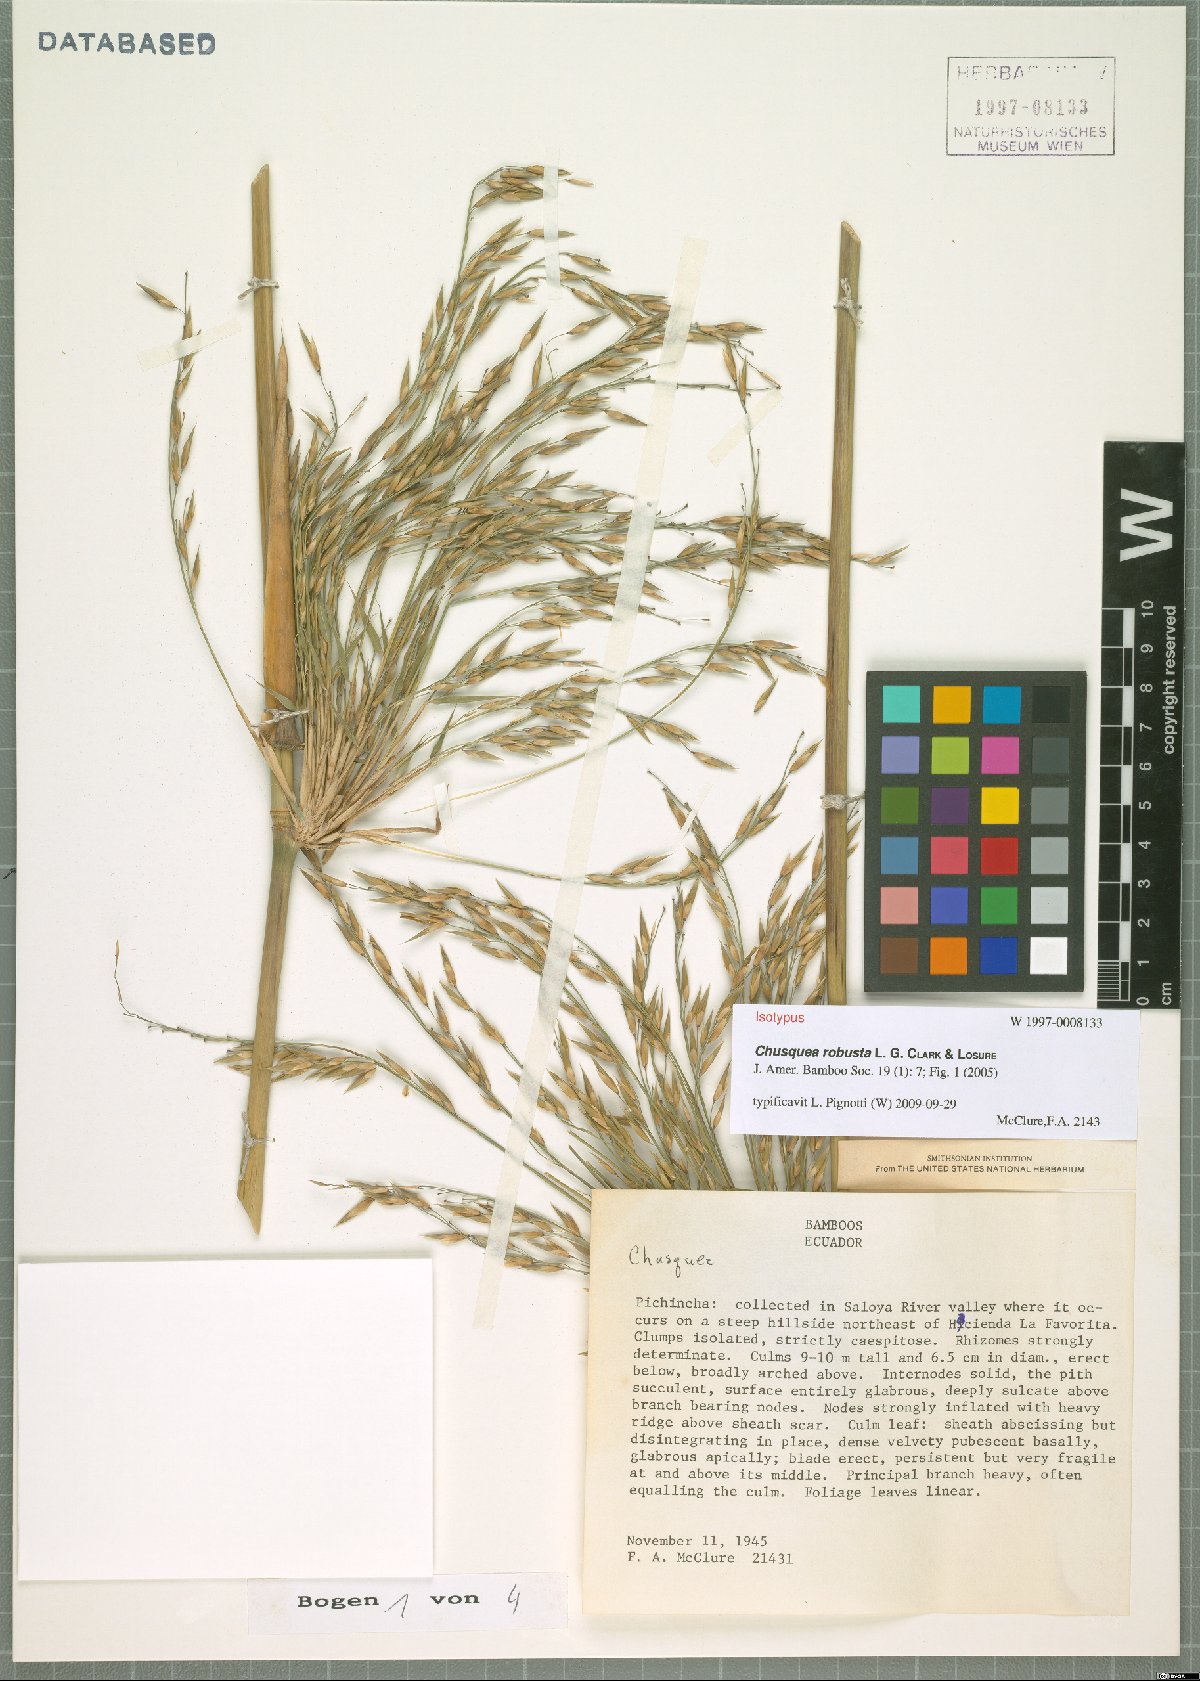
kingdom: Plantae
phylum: Tracheophyta
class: Liliopsida
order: Poales
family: Poaceae
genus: Chusquea
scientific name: Chusquea robusta
